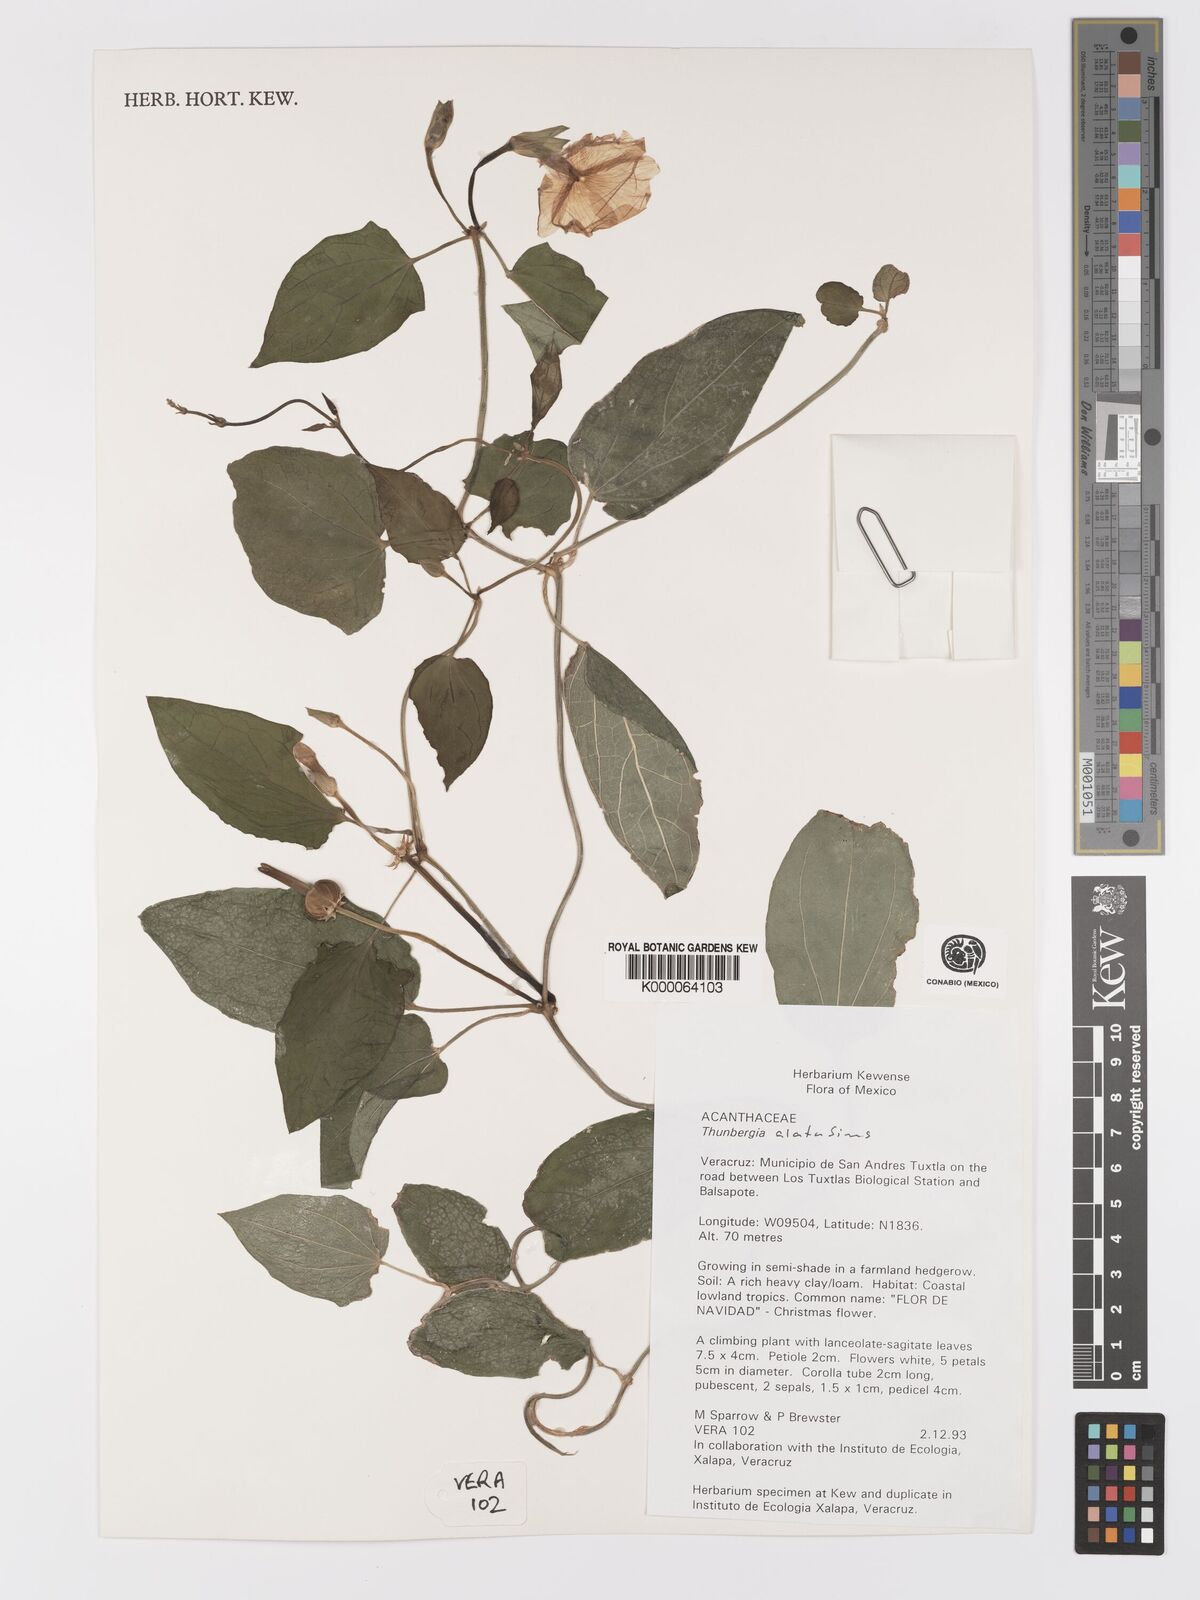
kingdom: Plantae
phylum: Tracheophyta
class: Magnoliopsida
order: Lamiales
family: Acanthaceae
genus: Thunbergia
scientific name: Thunbergia alata
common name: Blackeyed susan vine
